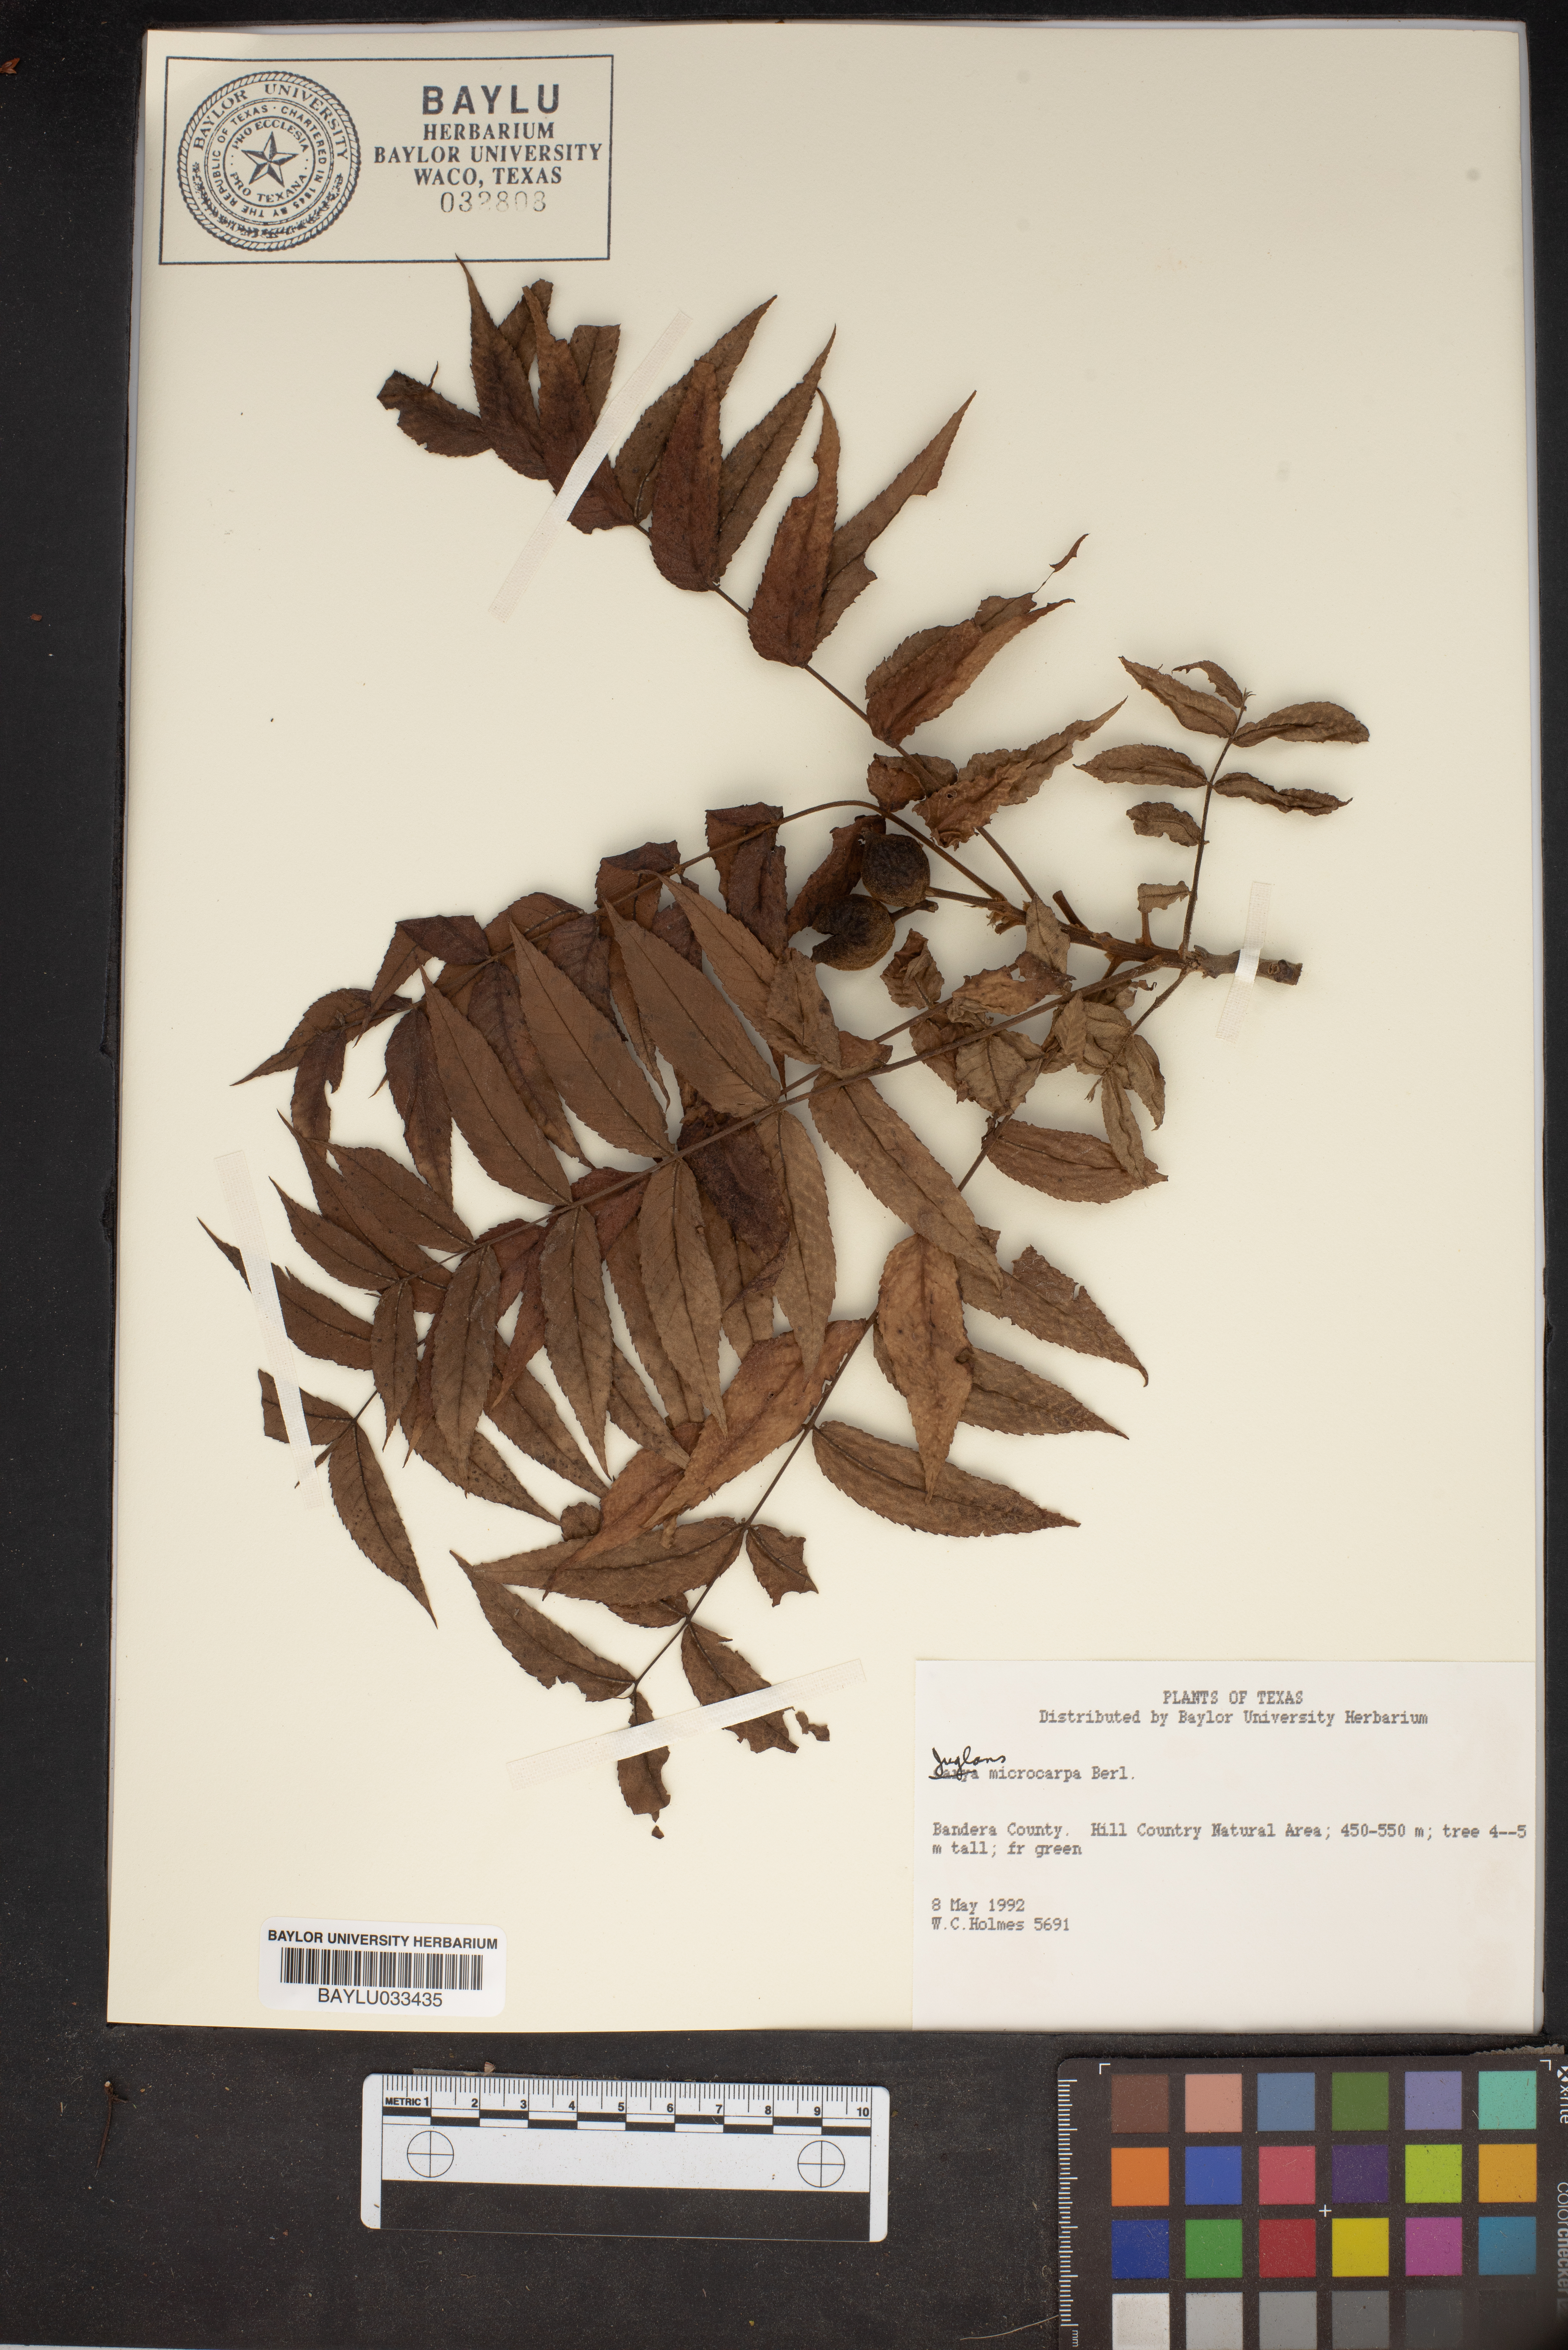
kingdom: Plantae
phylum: Tracheophyta
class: Magnoliopsida
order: Fagales
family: Juglandaceae
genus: Juglans
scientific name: Juglans microcarpa
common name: Texas walnut
